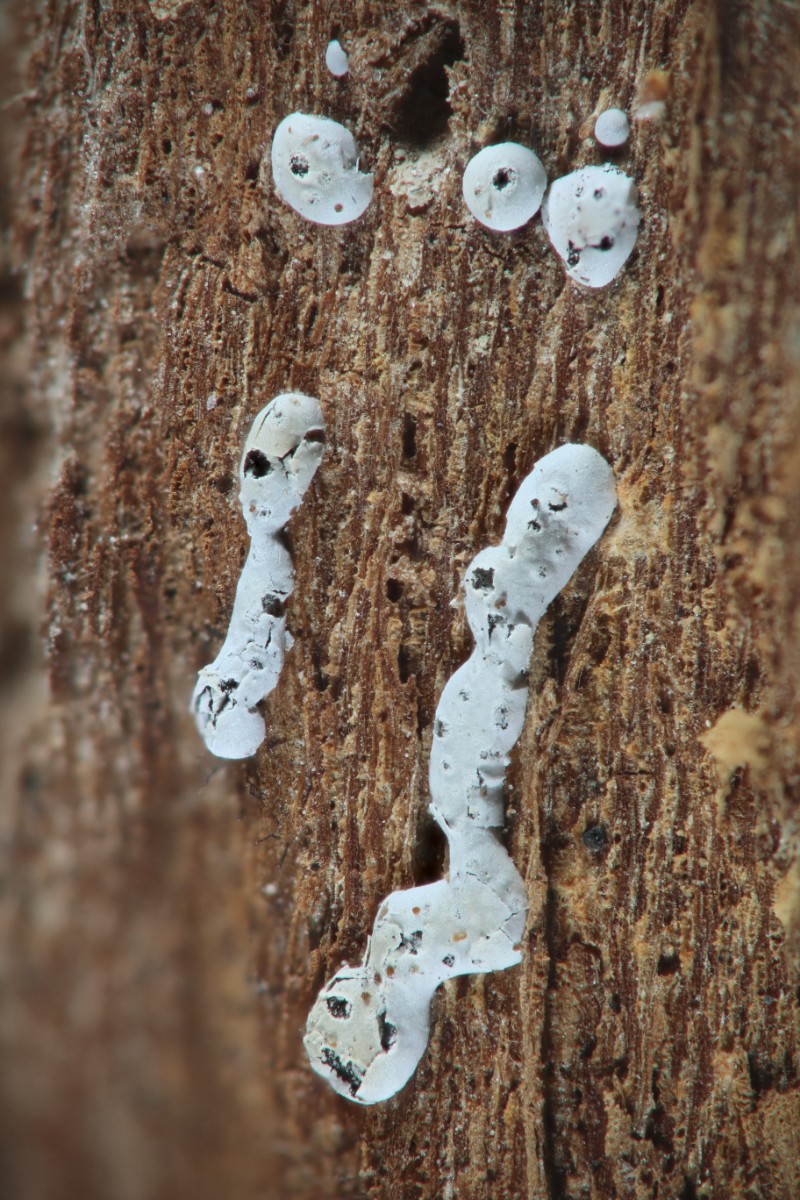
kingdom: Protozoa
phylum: Mycetozoa
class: Myxomycetes
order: Physarales
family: Didymiaceae
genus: Didymium
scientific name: Didymium difforme
